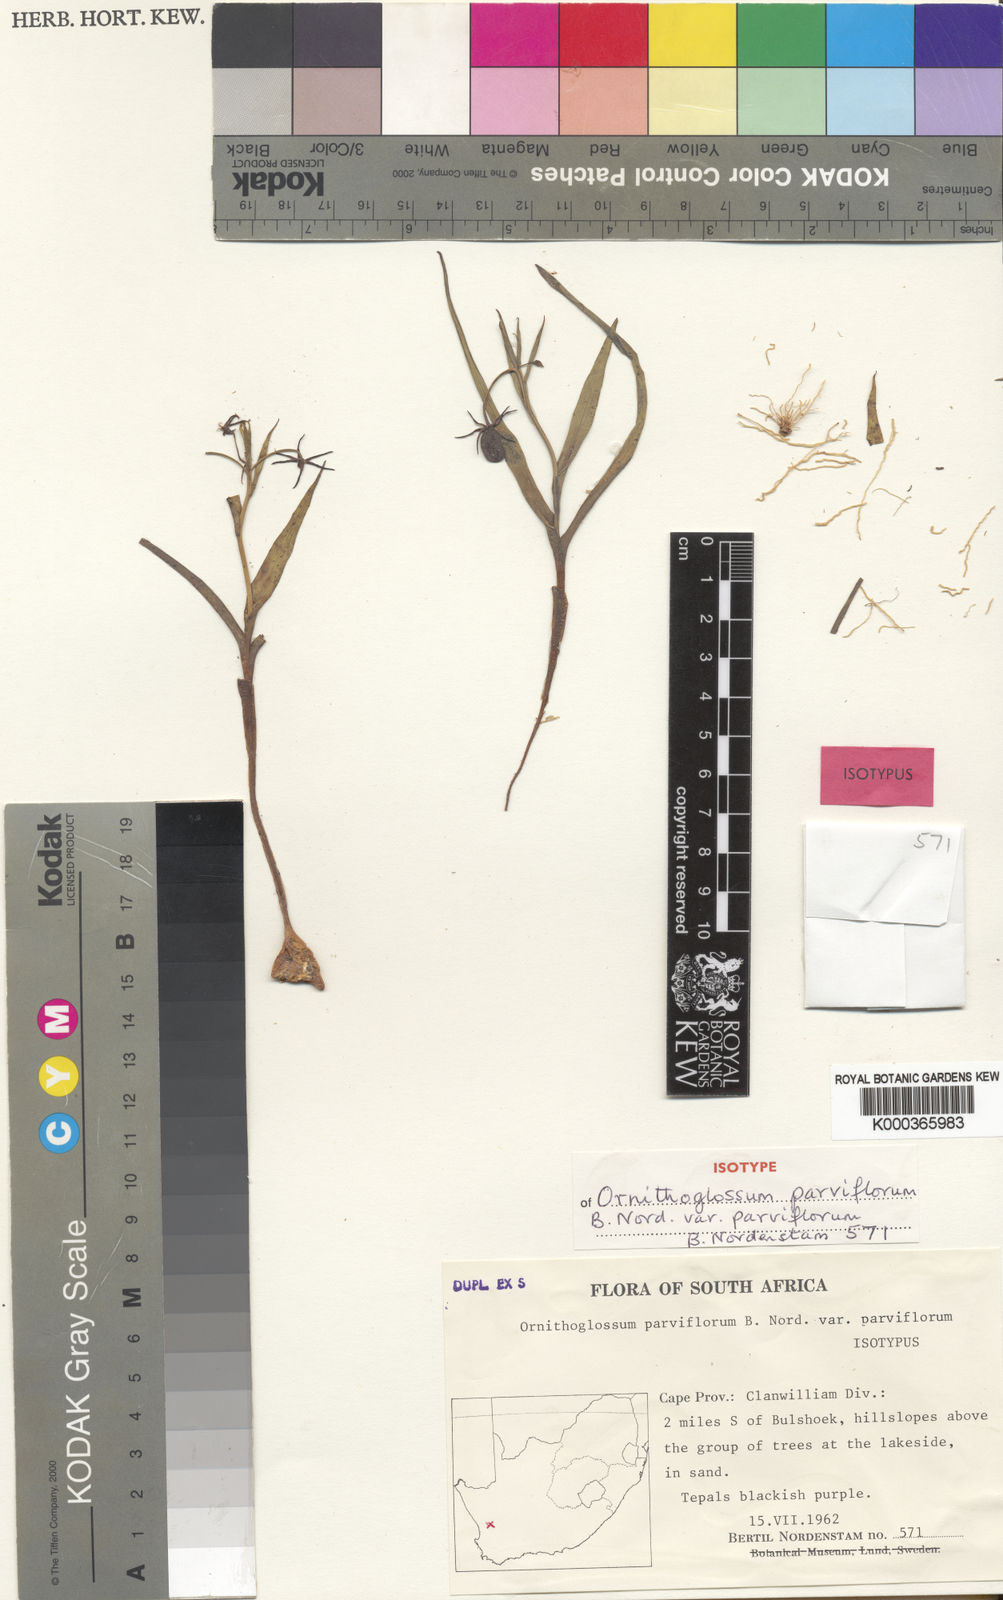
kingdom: Plantae
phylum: Tracheophyta
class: Liliopsida
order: Liliales
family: Colchicaceae
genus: Ornithoglossum
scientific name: Ornithoglossum parviflorum
